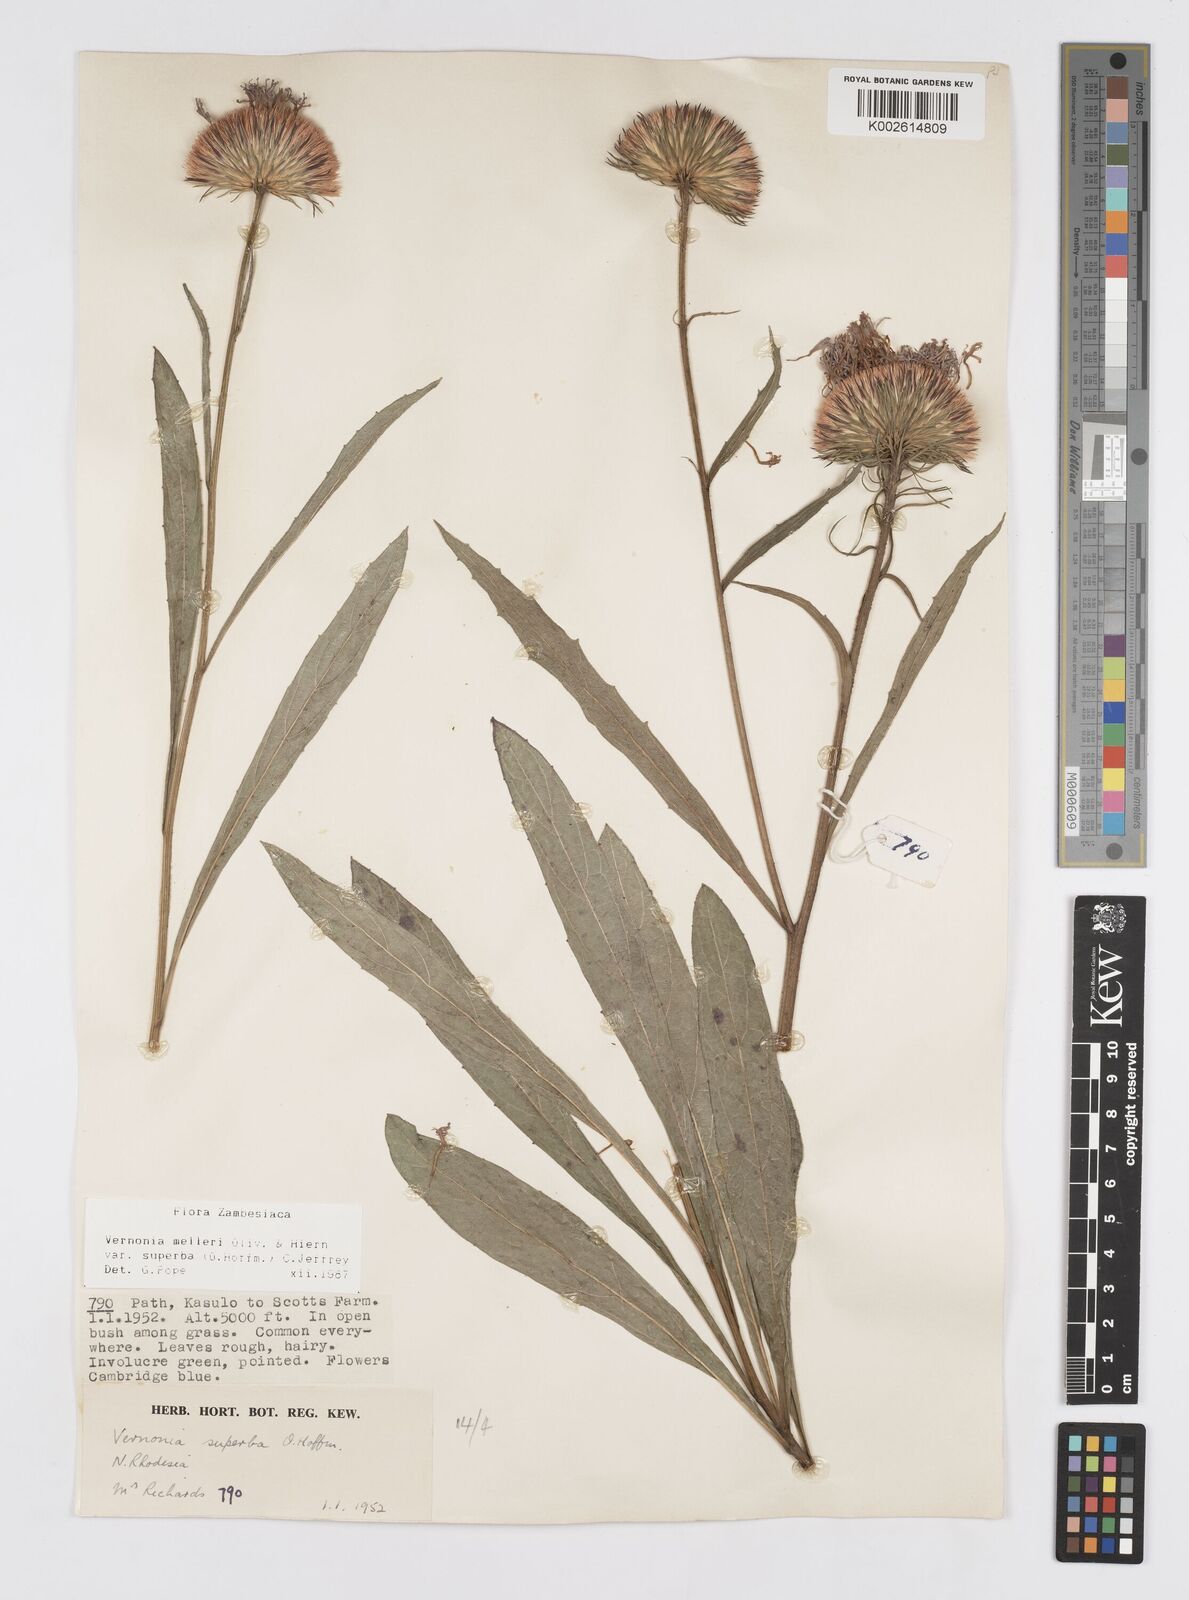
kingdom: Plantae
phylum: Tracheophyta
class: Magnoliopsida
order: Asterales
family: Asteraceae
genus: Linzia
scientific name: Linzia melleri
